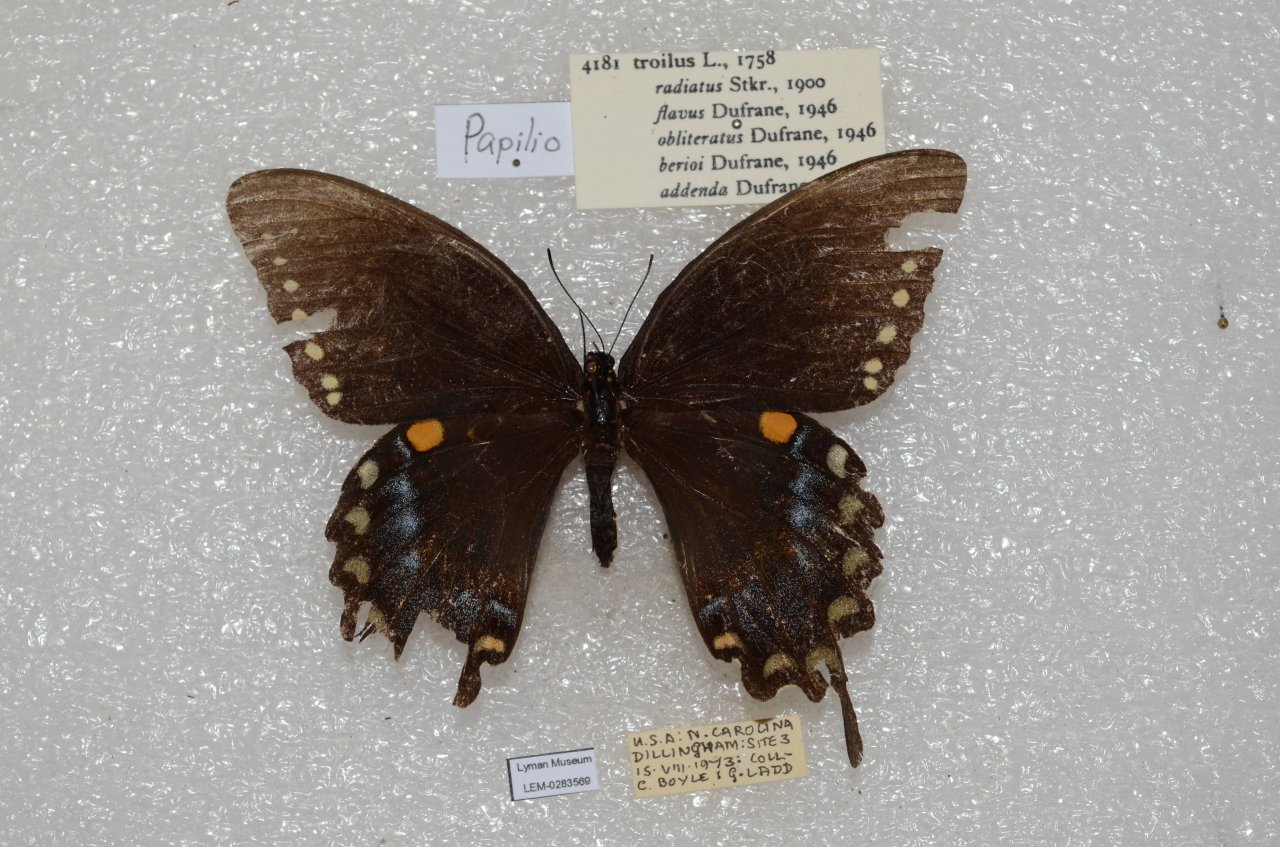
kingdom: Animalia
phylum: Arthropoda
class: Insecta
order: Lepidoptera
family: Papilionidae
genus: Pterourus
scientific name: Pterourus troilus
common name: Spicebush Swallowtail
